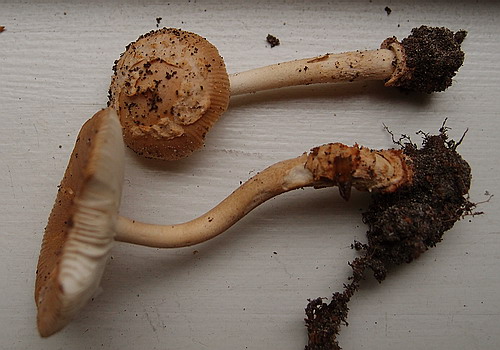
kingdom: Fungi
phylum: Basidiomycota
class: Agaricomycetes
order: Agaricales
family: Amanitaceae
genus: Amanita
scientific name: Amanita fulva
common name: brun kam-fluesvamp
